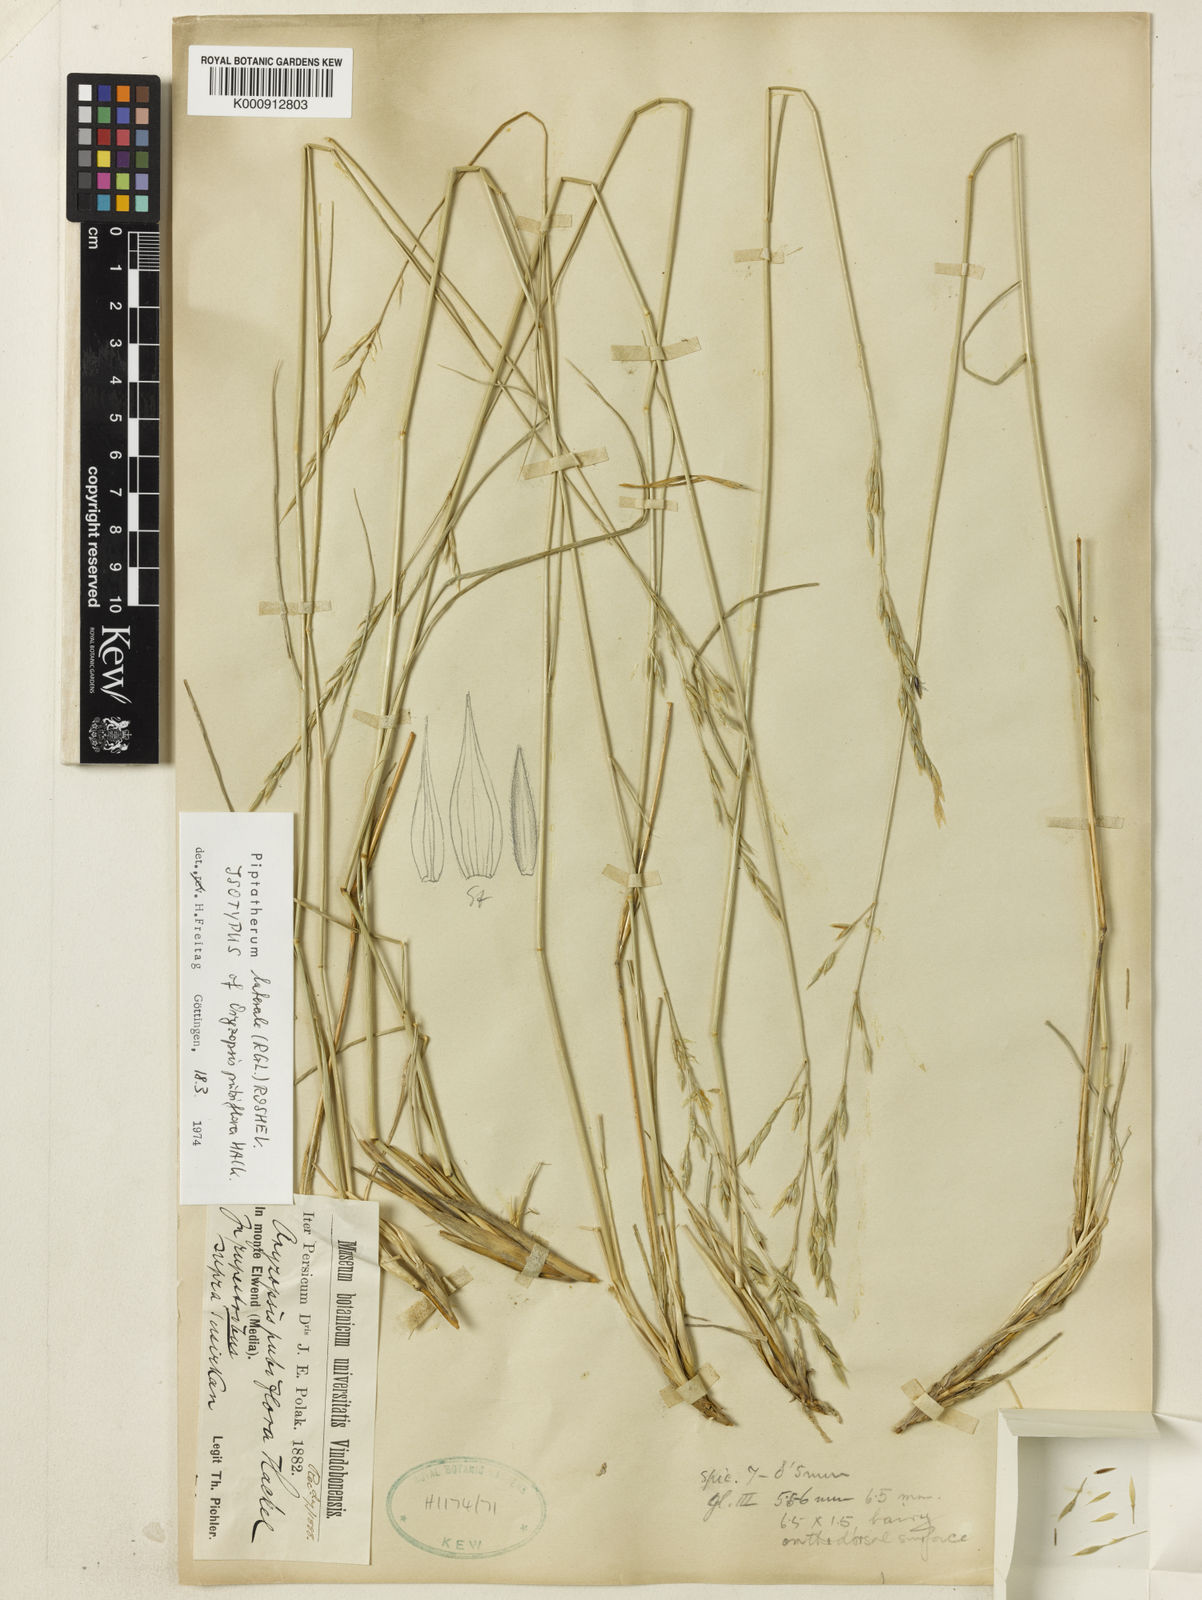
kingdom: Plantae
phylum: Tracheophyta
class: Liliopsida
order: Poales
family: Poaceae
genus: Piptatherum
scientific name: Piptatherum laterale
